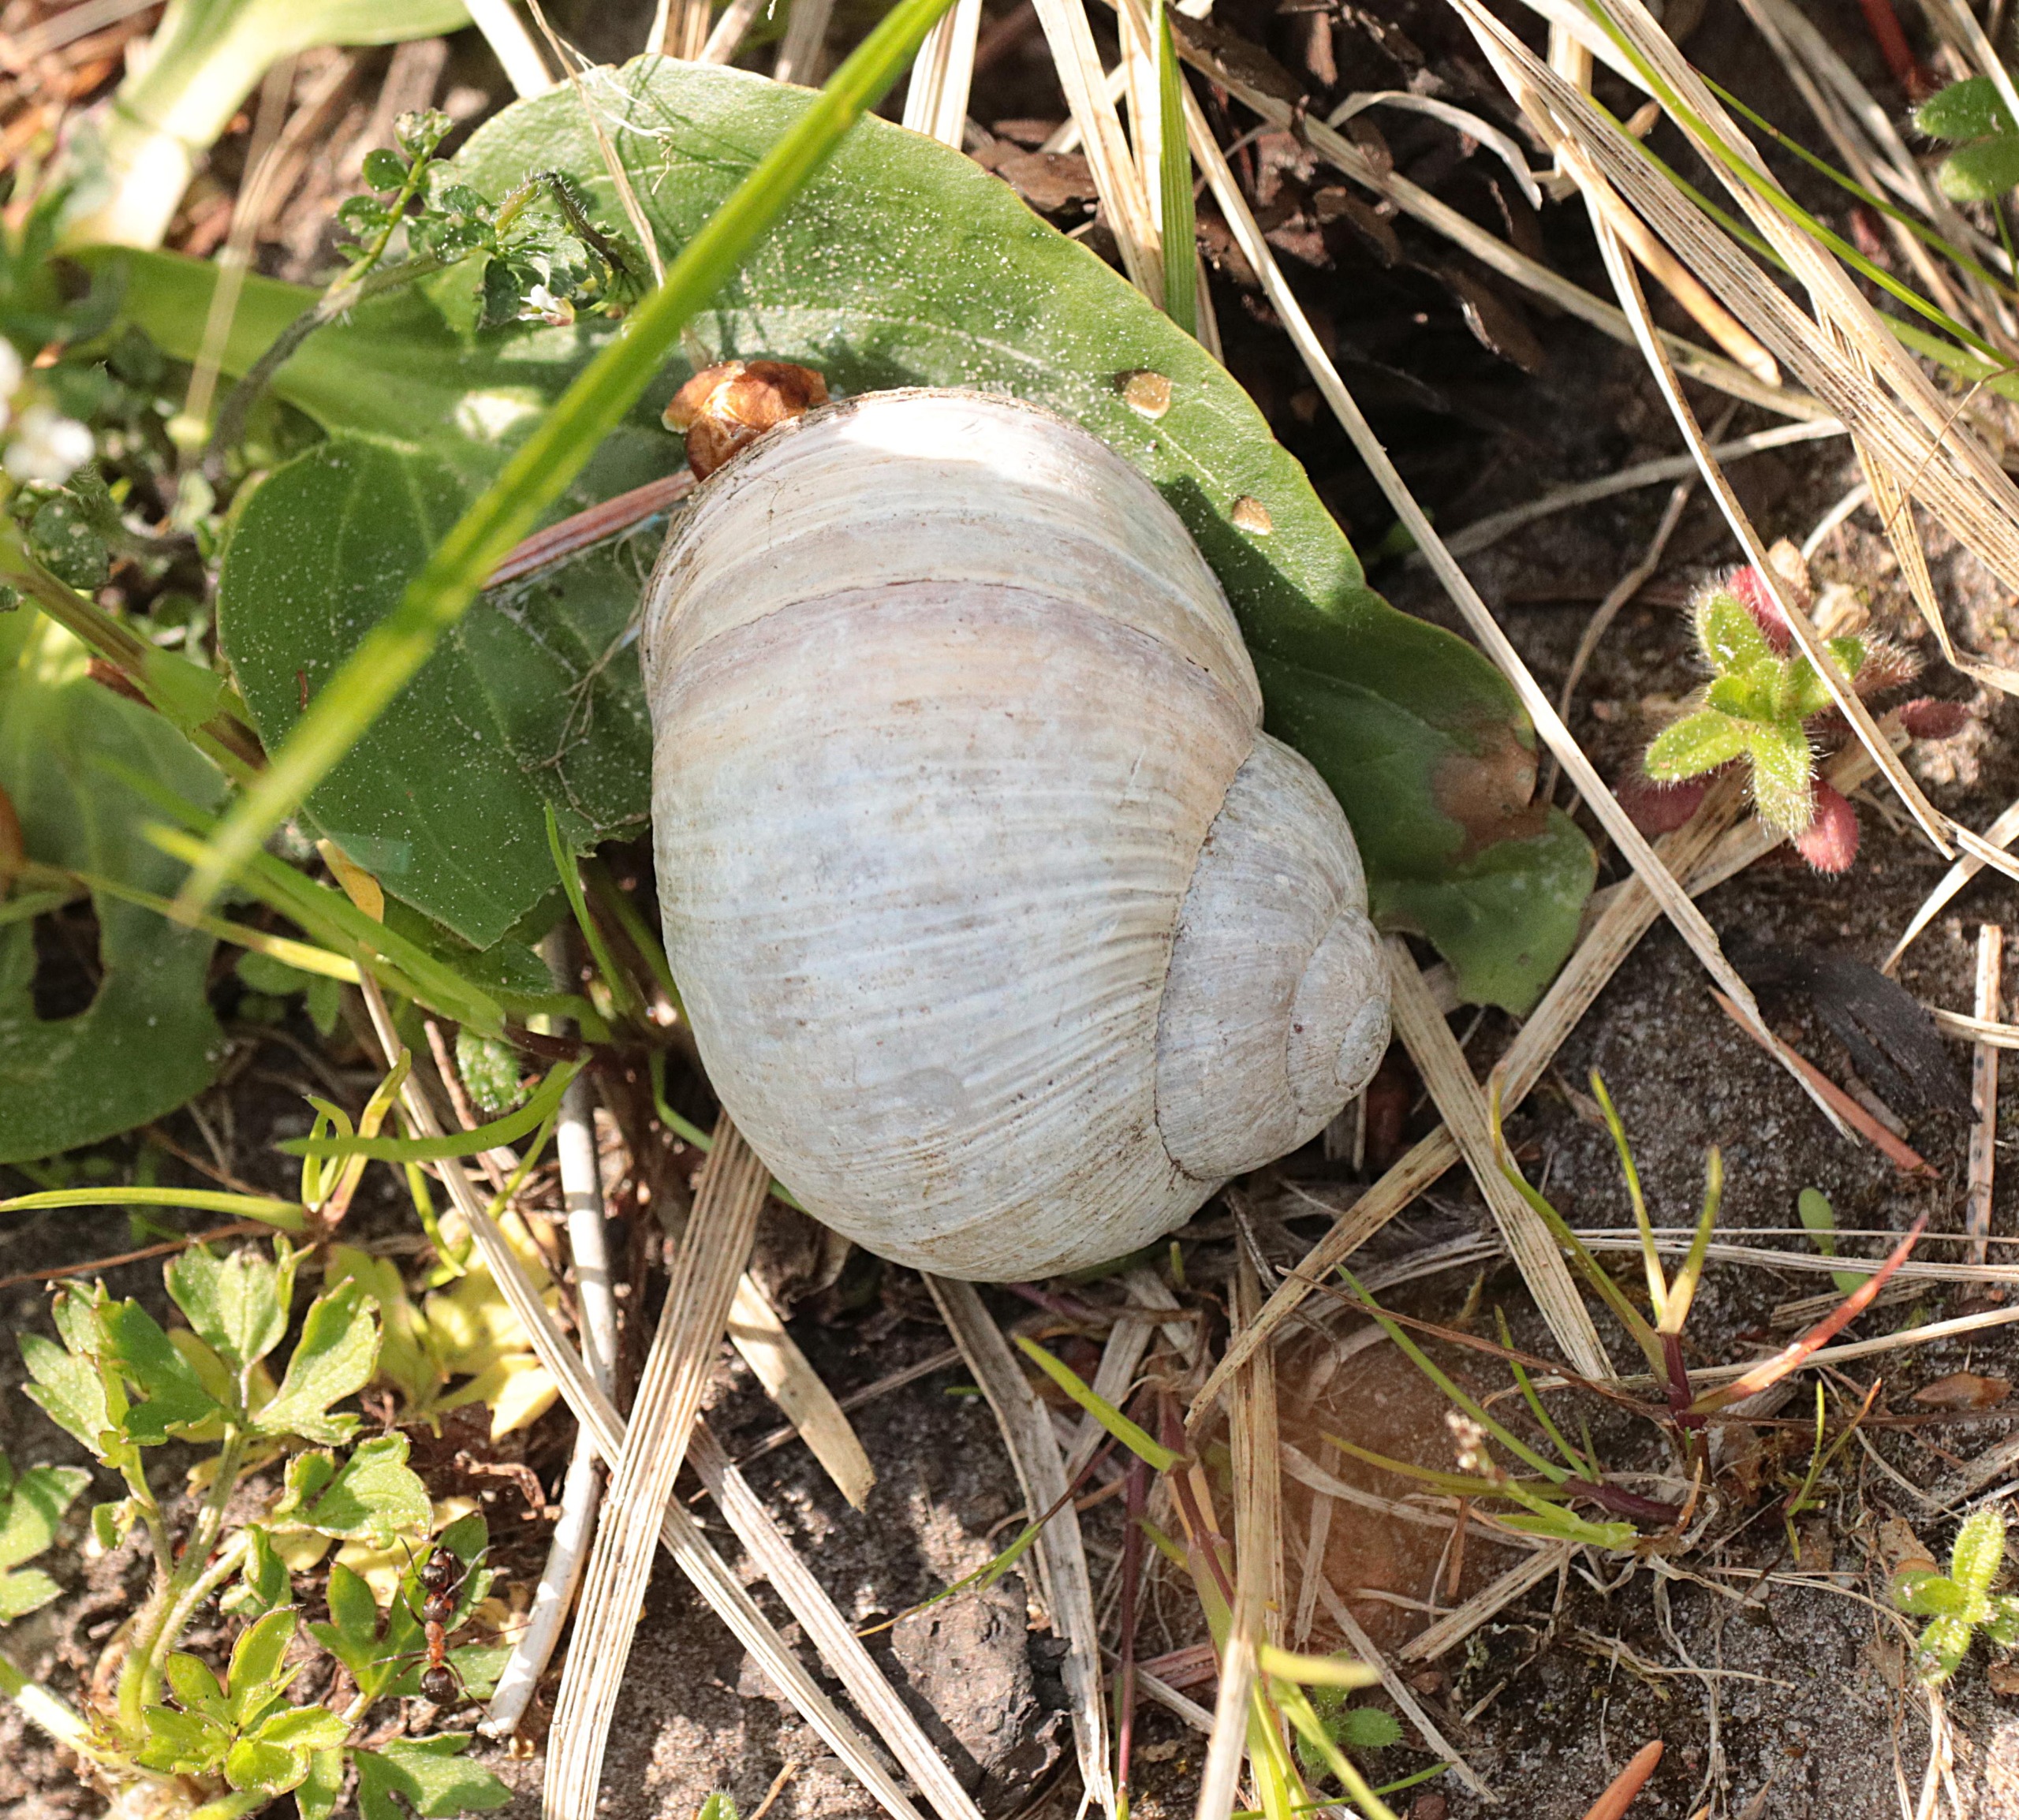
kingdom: Animalia
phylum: Mollusca
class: Gastropoda
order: Stylommatophora
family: Helicidae
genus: Helix
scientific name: Helix pomatia
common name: Vinbjergsnegl
